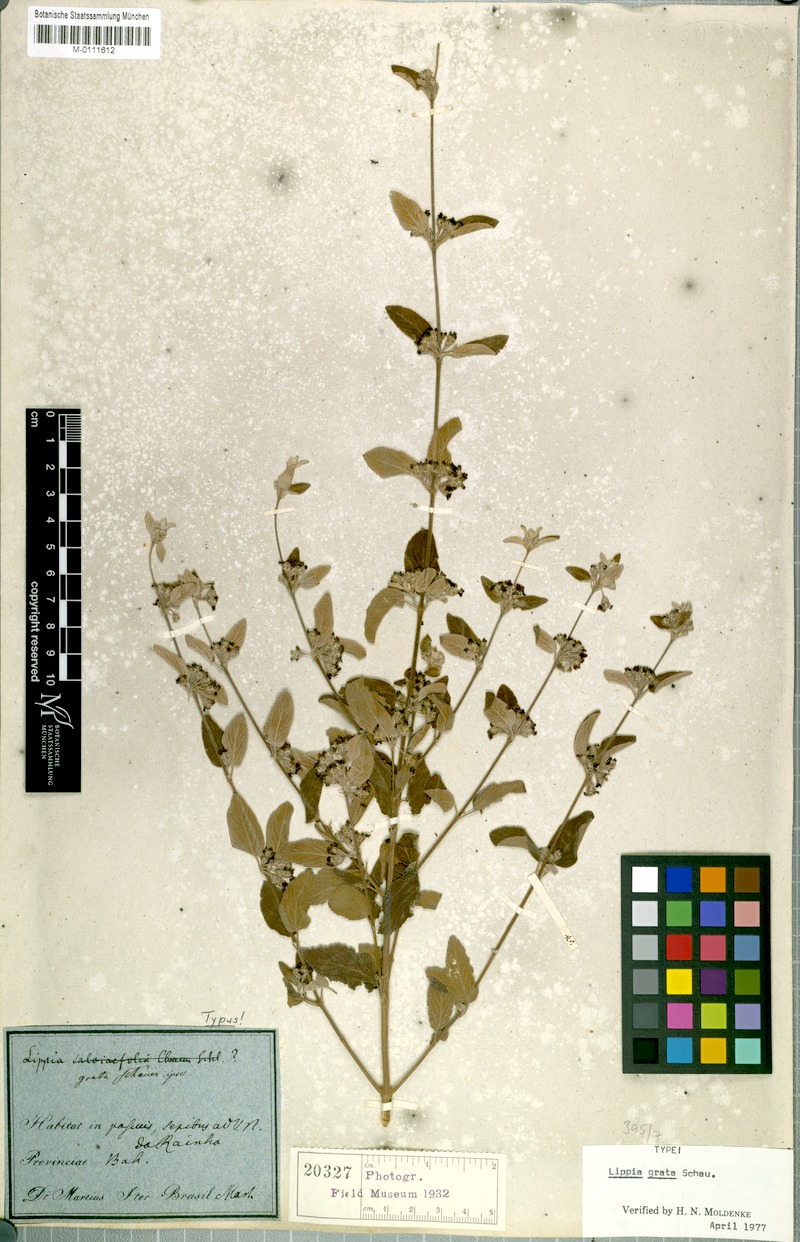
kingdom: Plantae
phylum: Tracheophyta
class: Magnoliopsida
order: Lamiales
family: Verbenaceae
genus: Lippia
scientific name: Lippia grata
